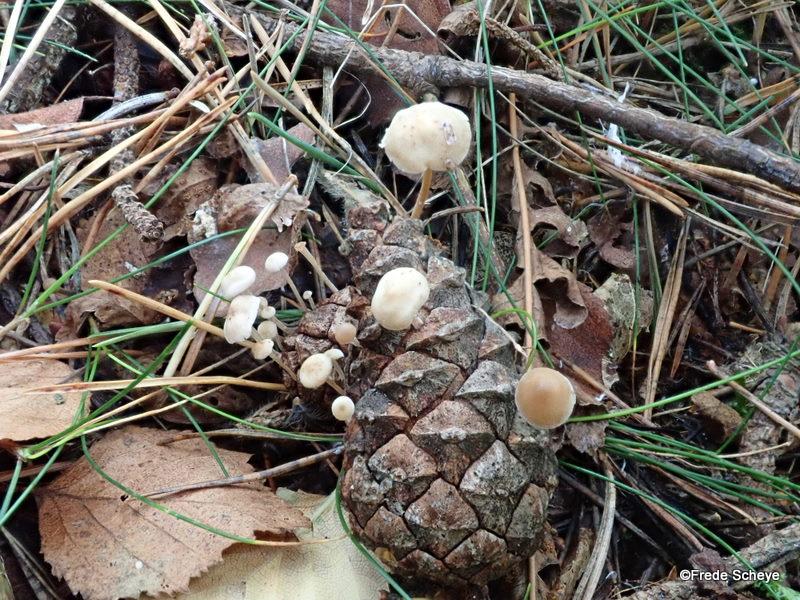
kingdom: Fungi
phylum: Basidiomycota
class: Agaricomycetes
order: Agaricales
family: Marasmiaceae
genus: Baeospora
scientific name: Baeospora myosura
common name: koglebruskhat
